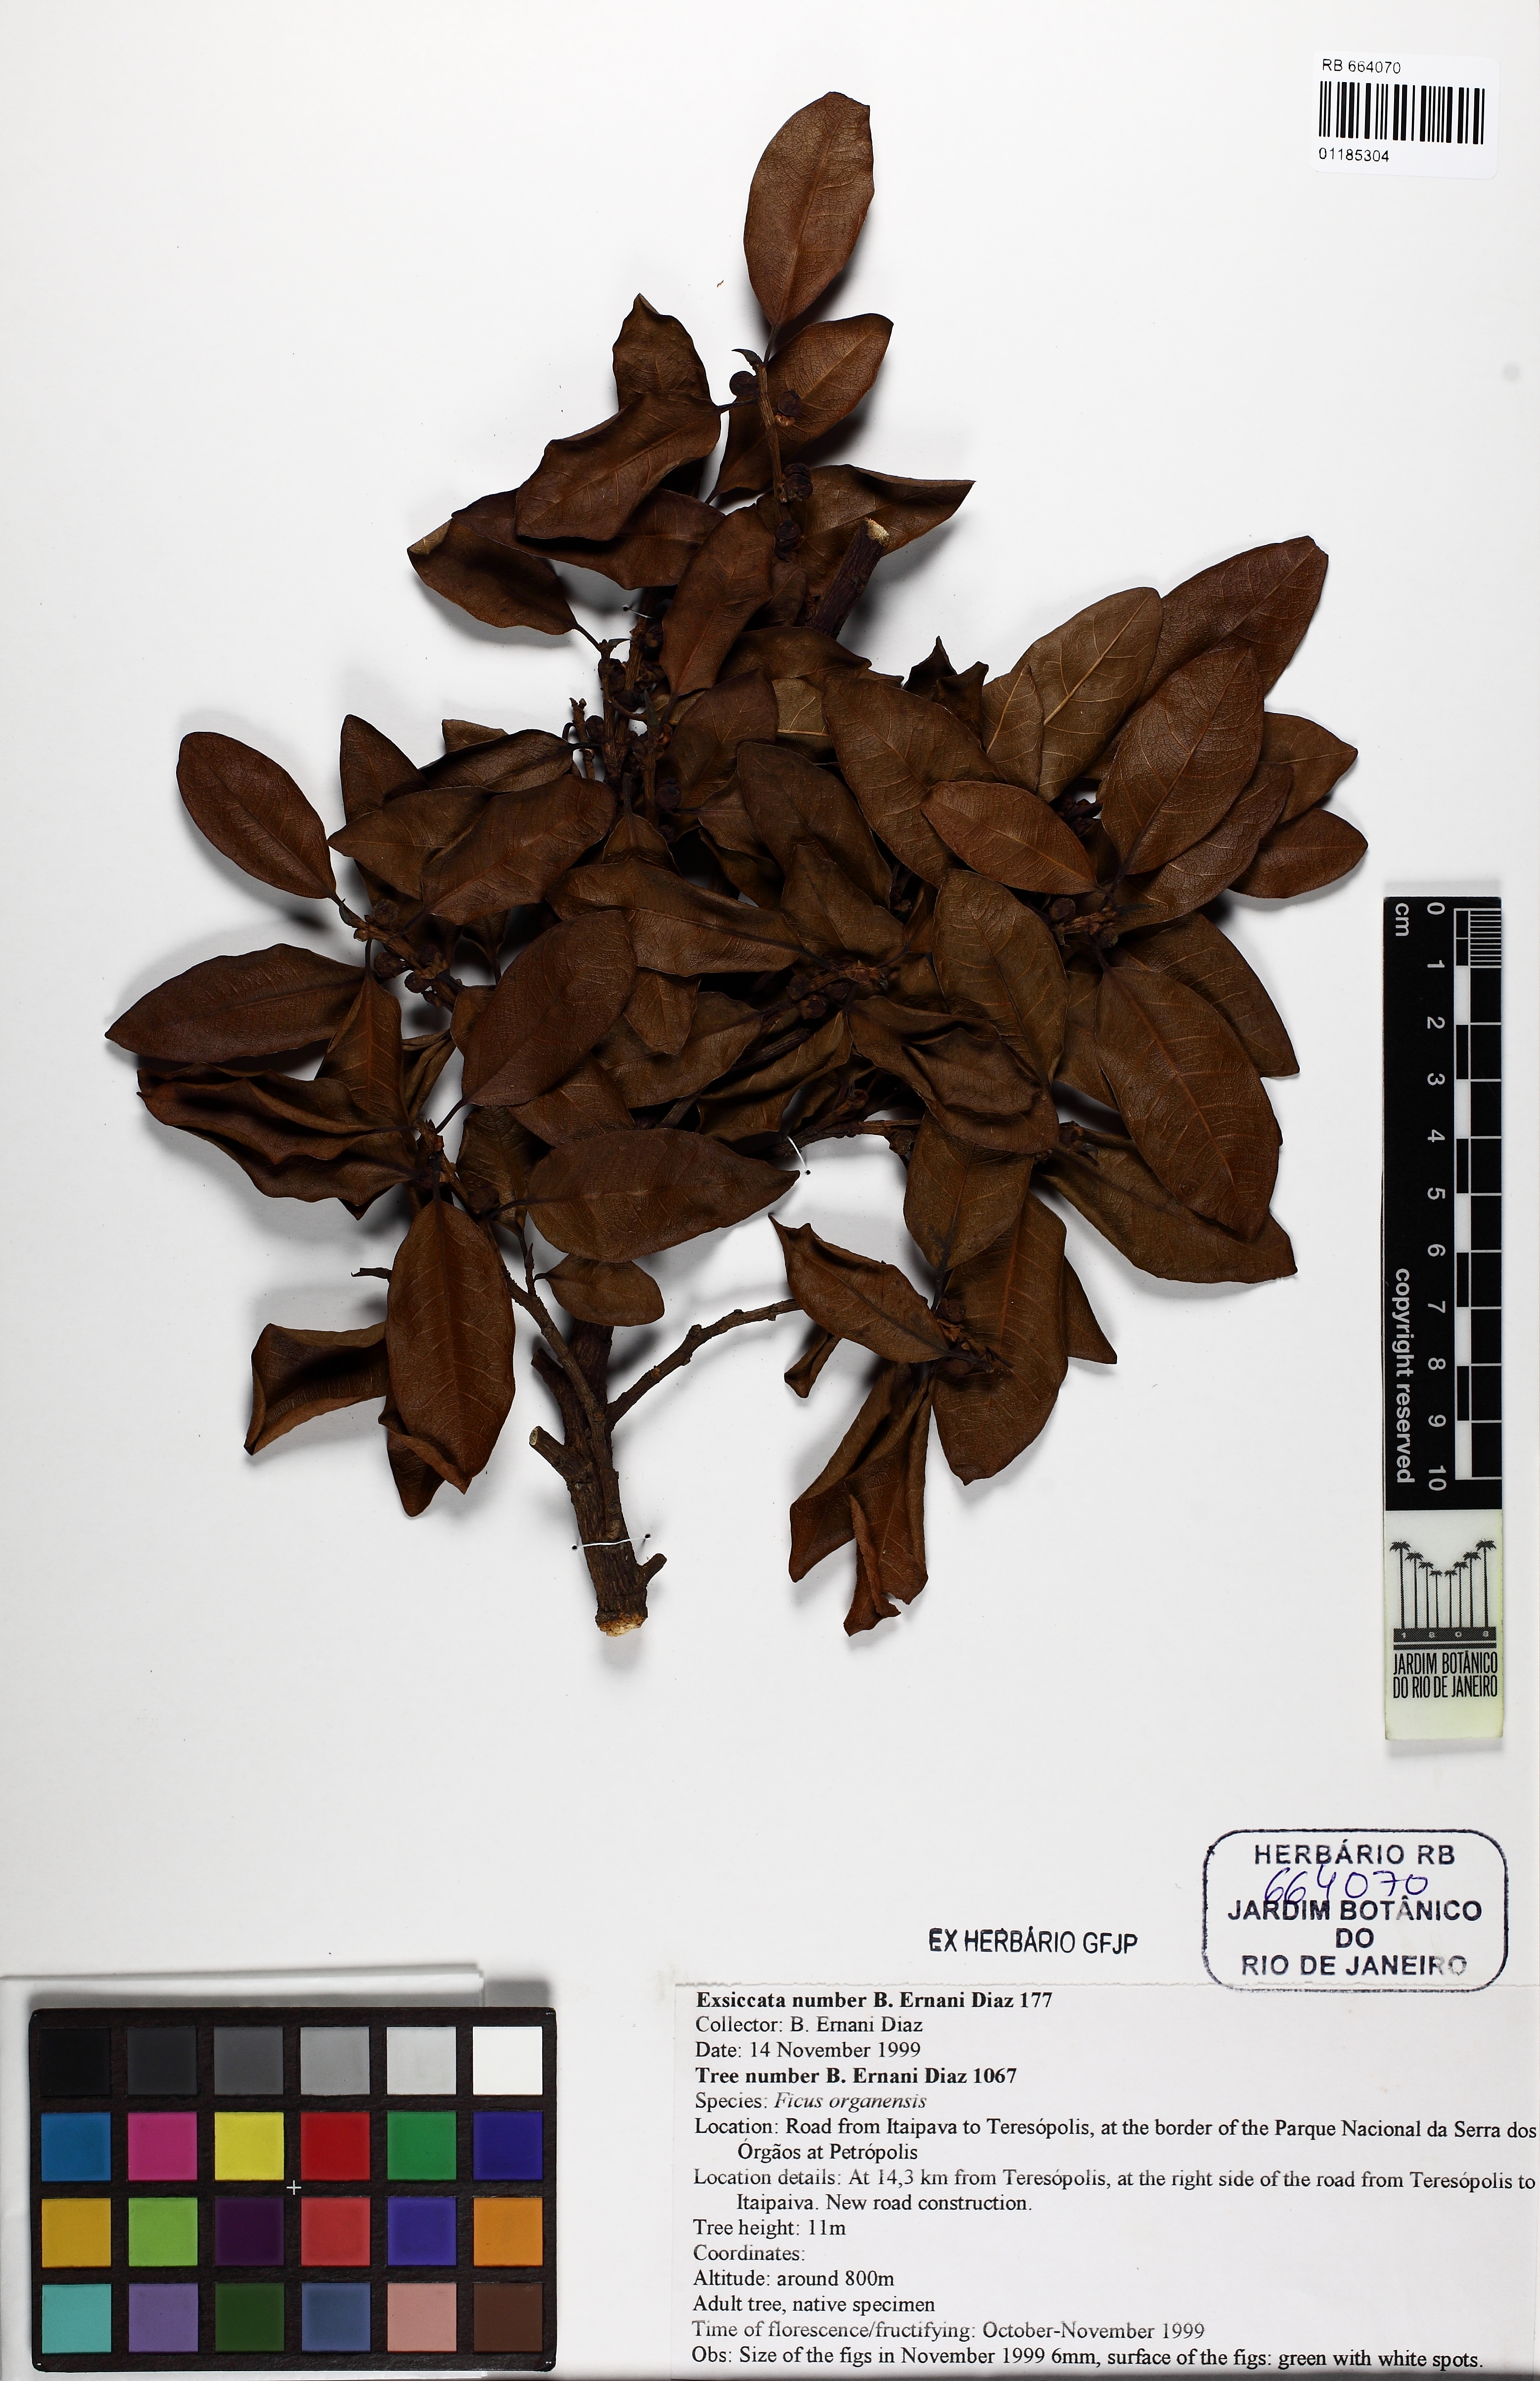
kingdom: Plantae
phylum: Tracheophyta
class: Magnoliopsida
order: Rosales
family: Moraceae
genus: Ficus
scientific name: Ficus organensis
